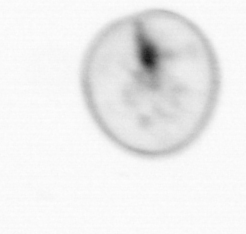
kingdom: Chromista
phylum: Myzozoa
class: Dinophyceae
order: Noctilucales
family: Noctilucaceae
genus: Noctiluca
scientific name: Noctiluca scintillans
